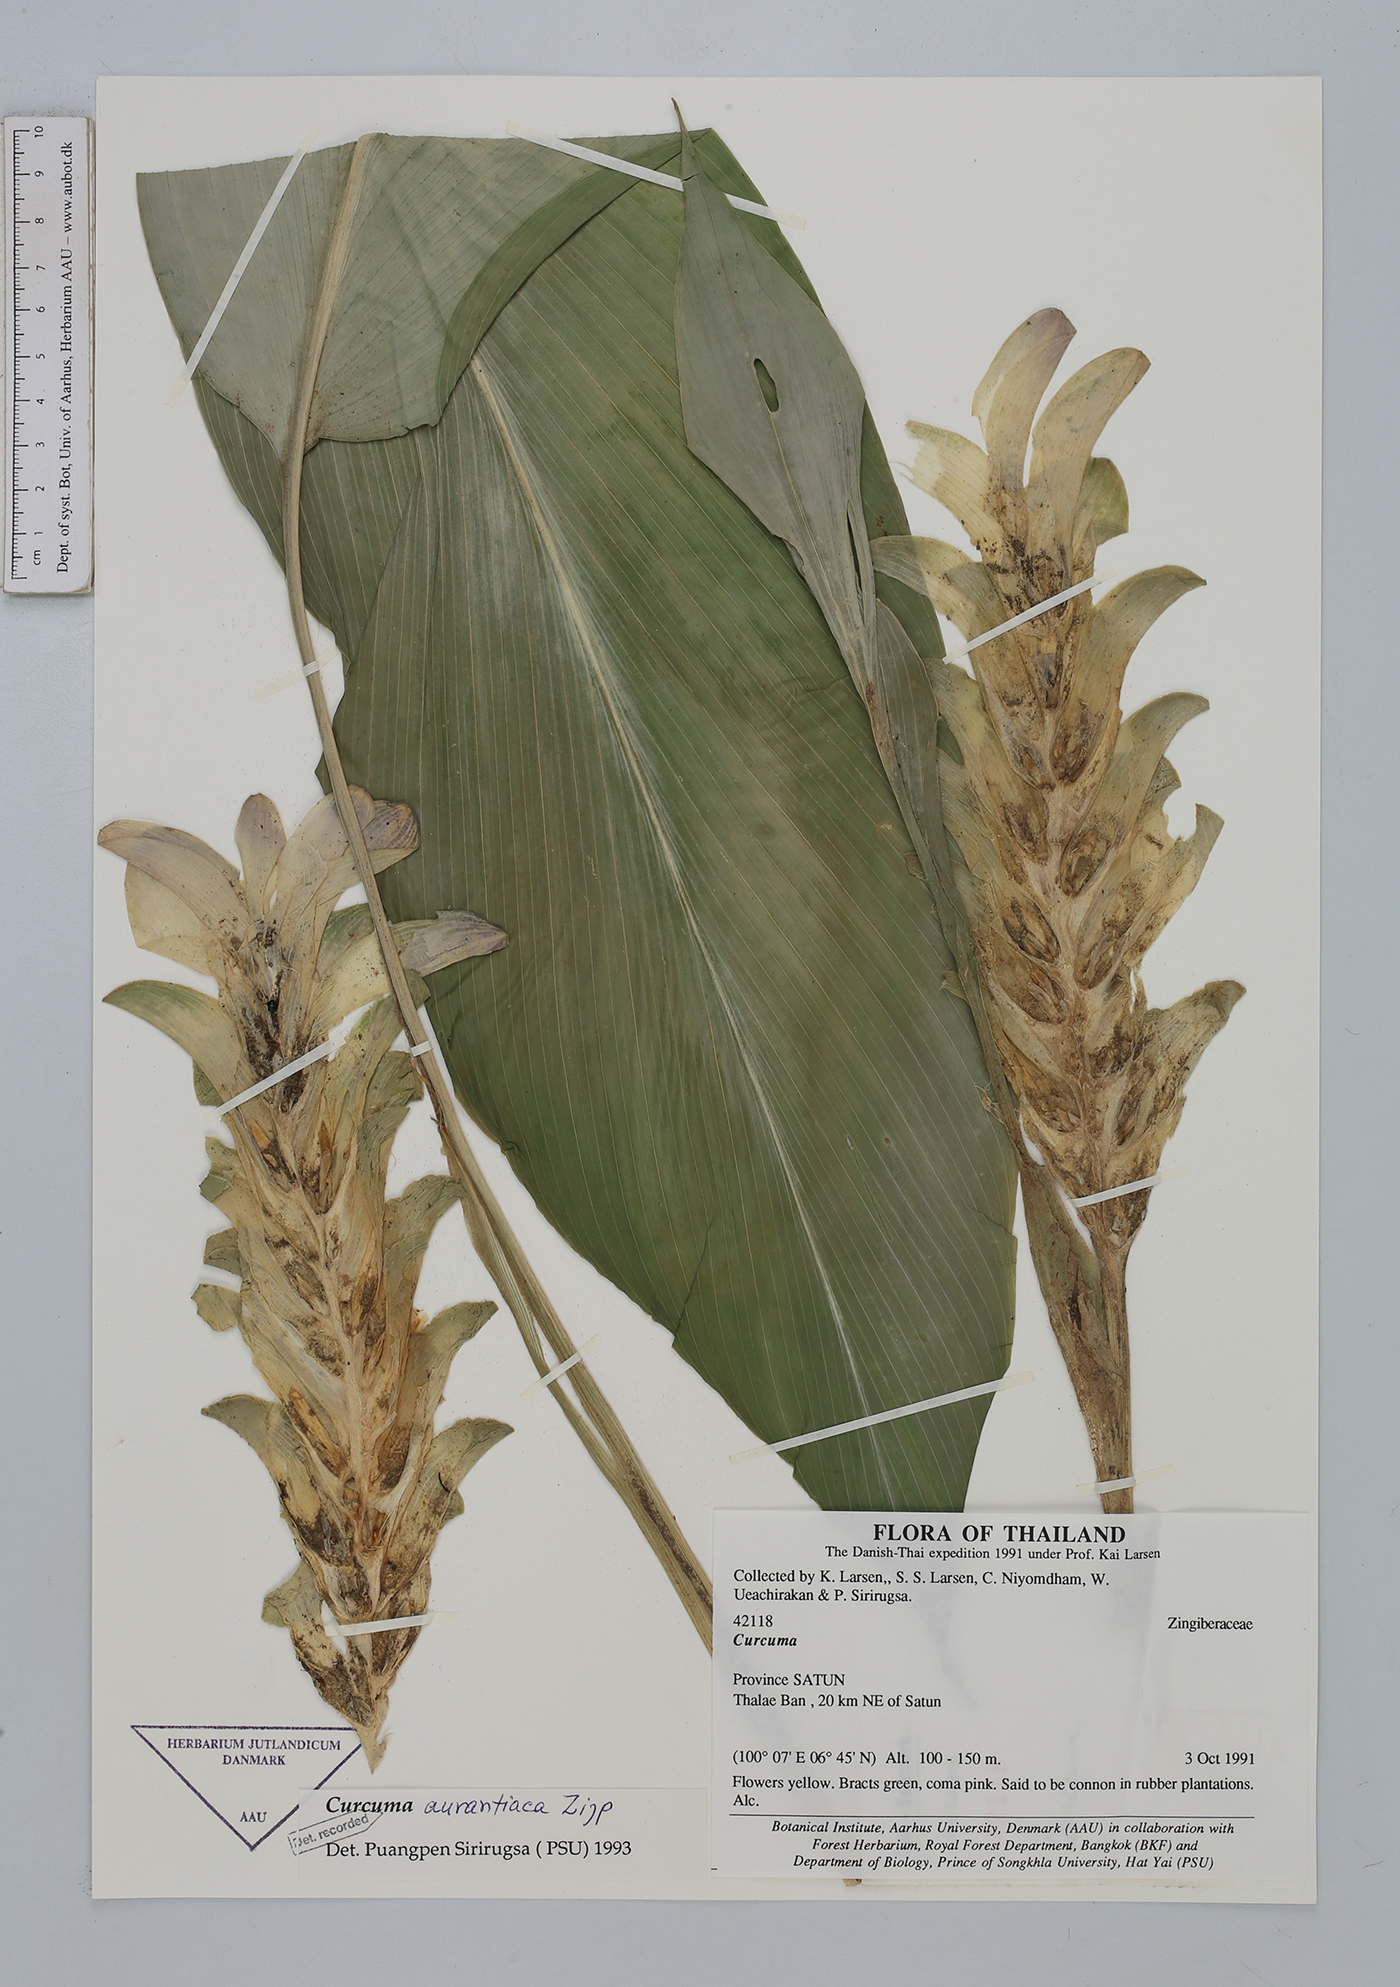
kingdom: Plantae
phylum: Tracheophyta
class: Liliopsida
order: Zingiberales
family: Zingiberaceae
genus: Curcuma
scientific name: Curcuma aurantiaca
